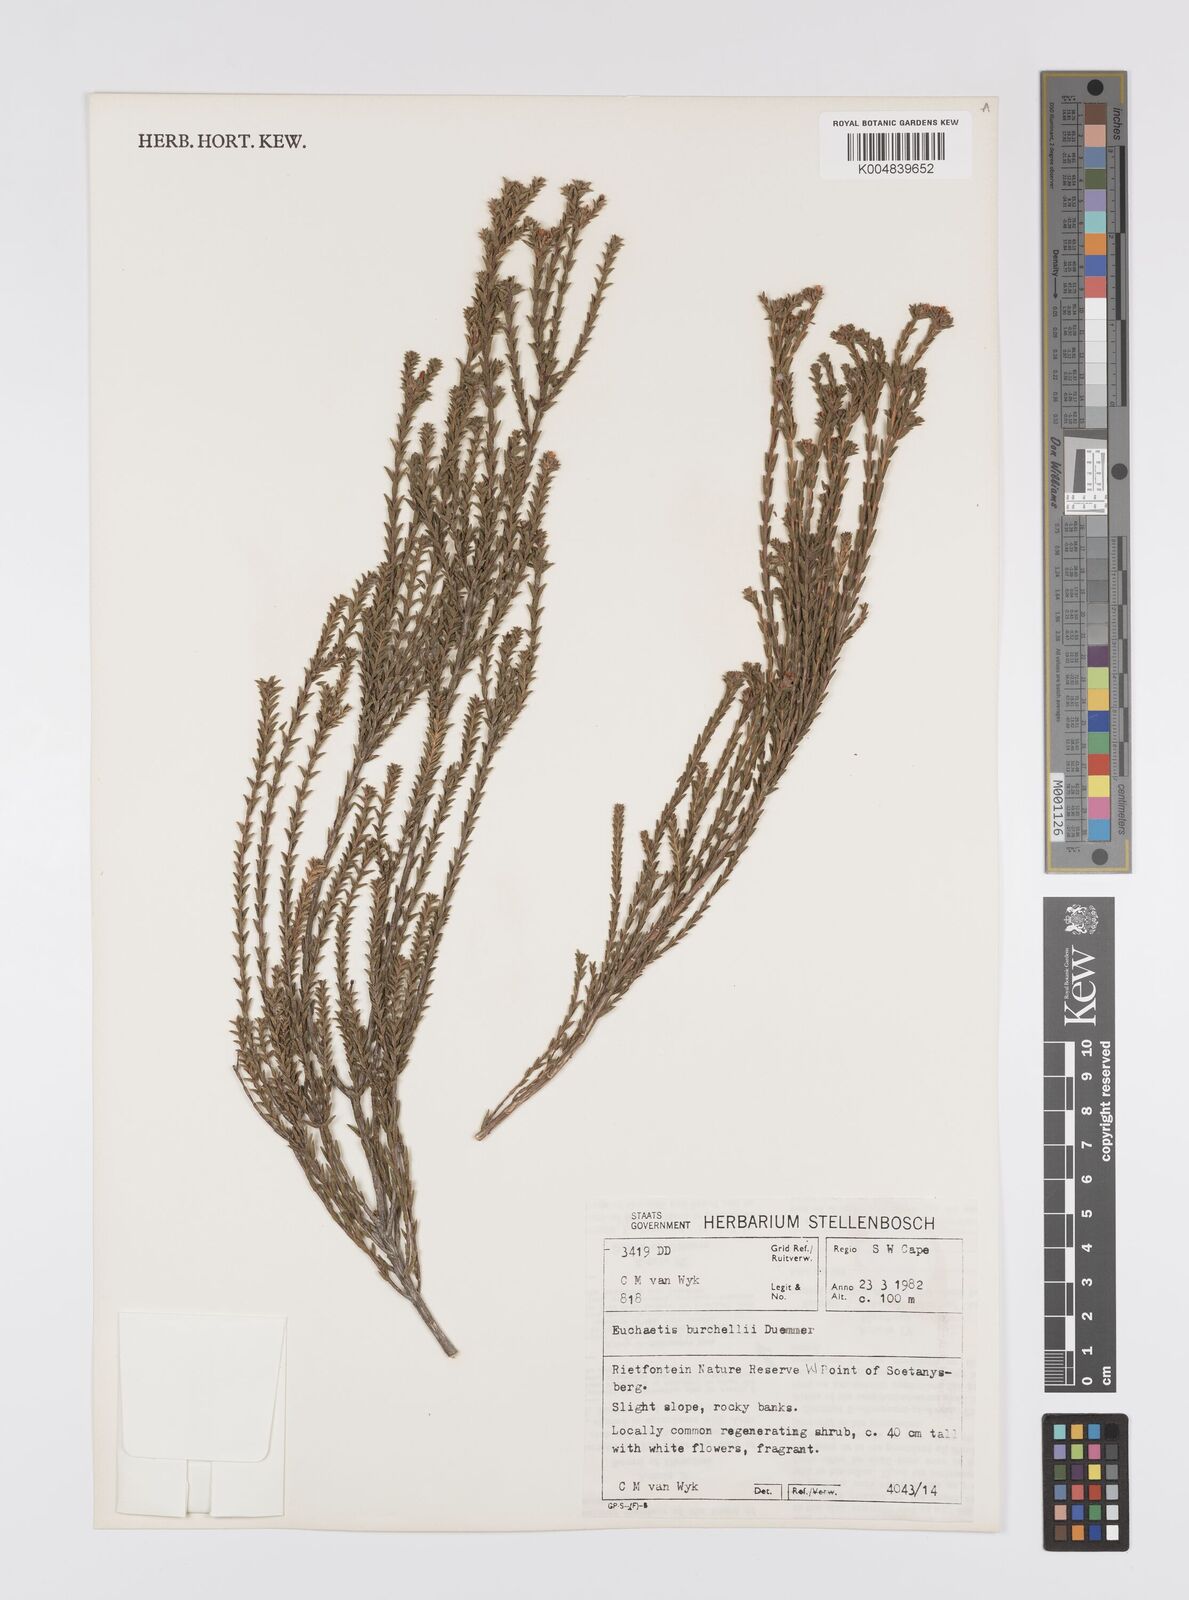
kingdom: Plantae
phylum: Tracheophyta
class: Magnoliopsida
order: Sapindales
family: Rutaceae
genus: Euchaetis
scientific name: Euchaetis burchellii
